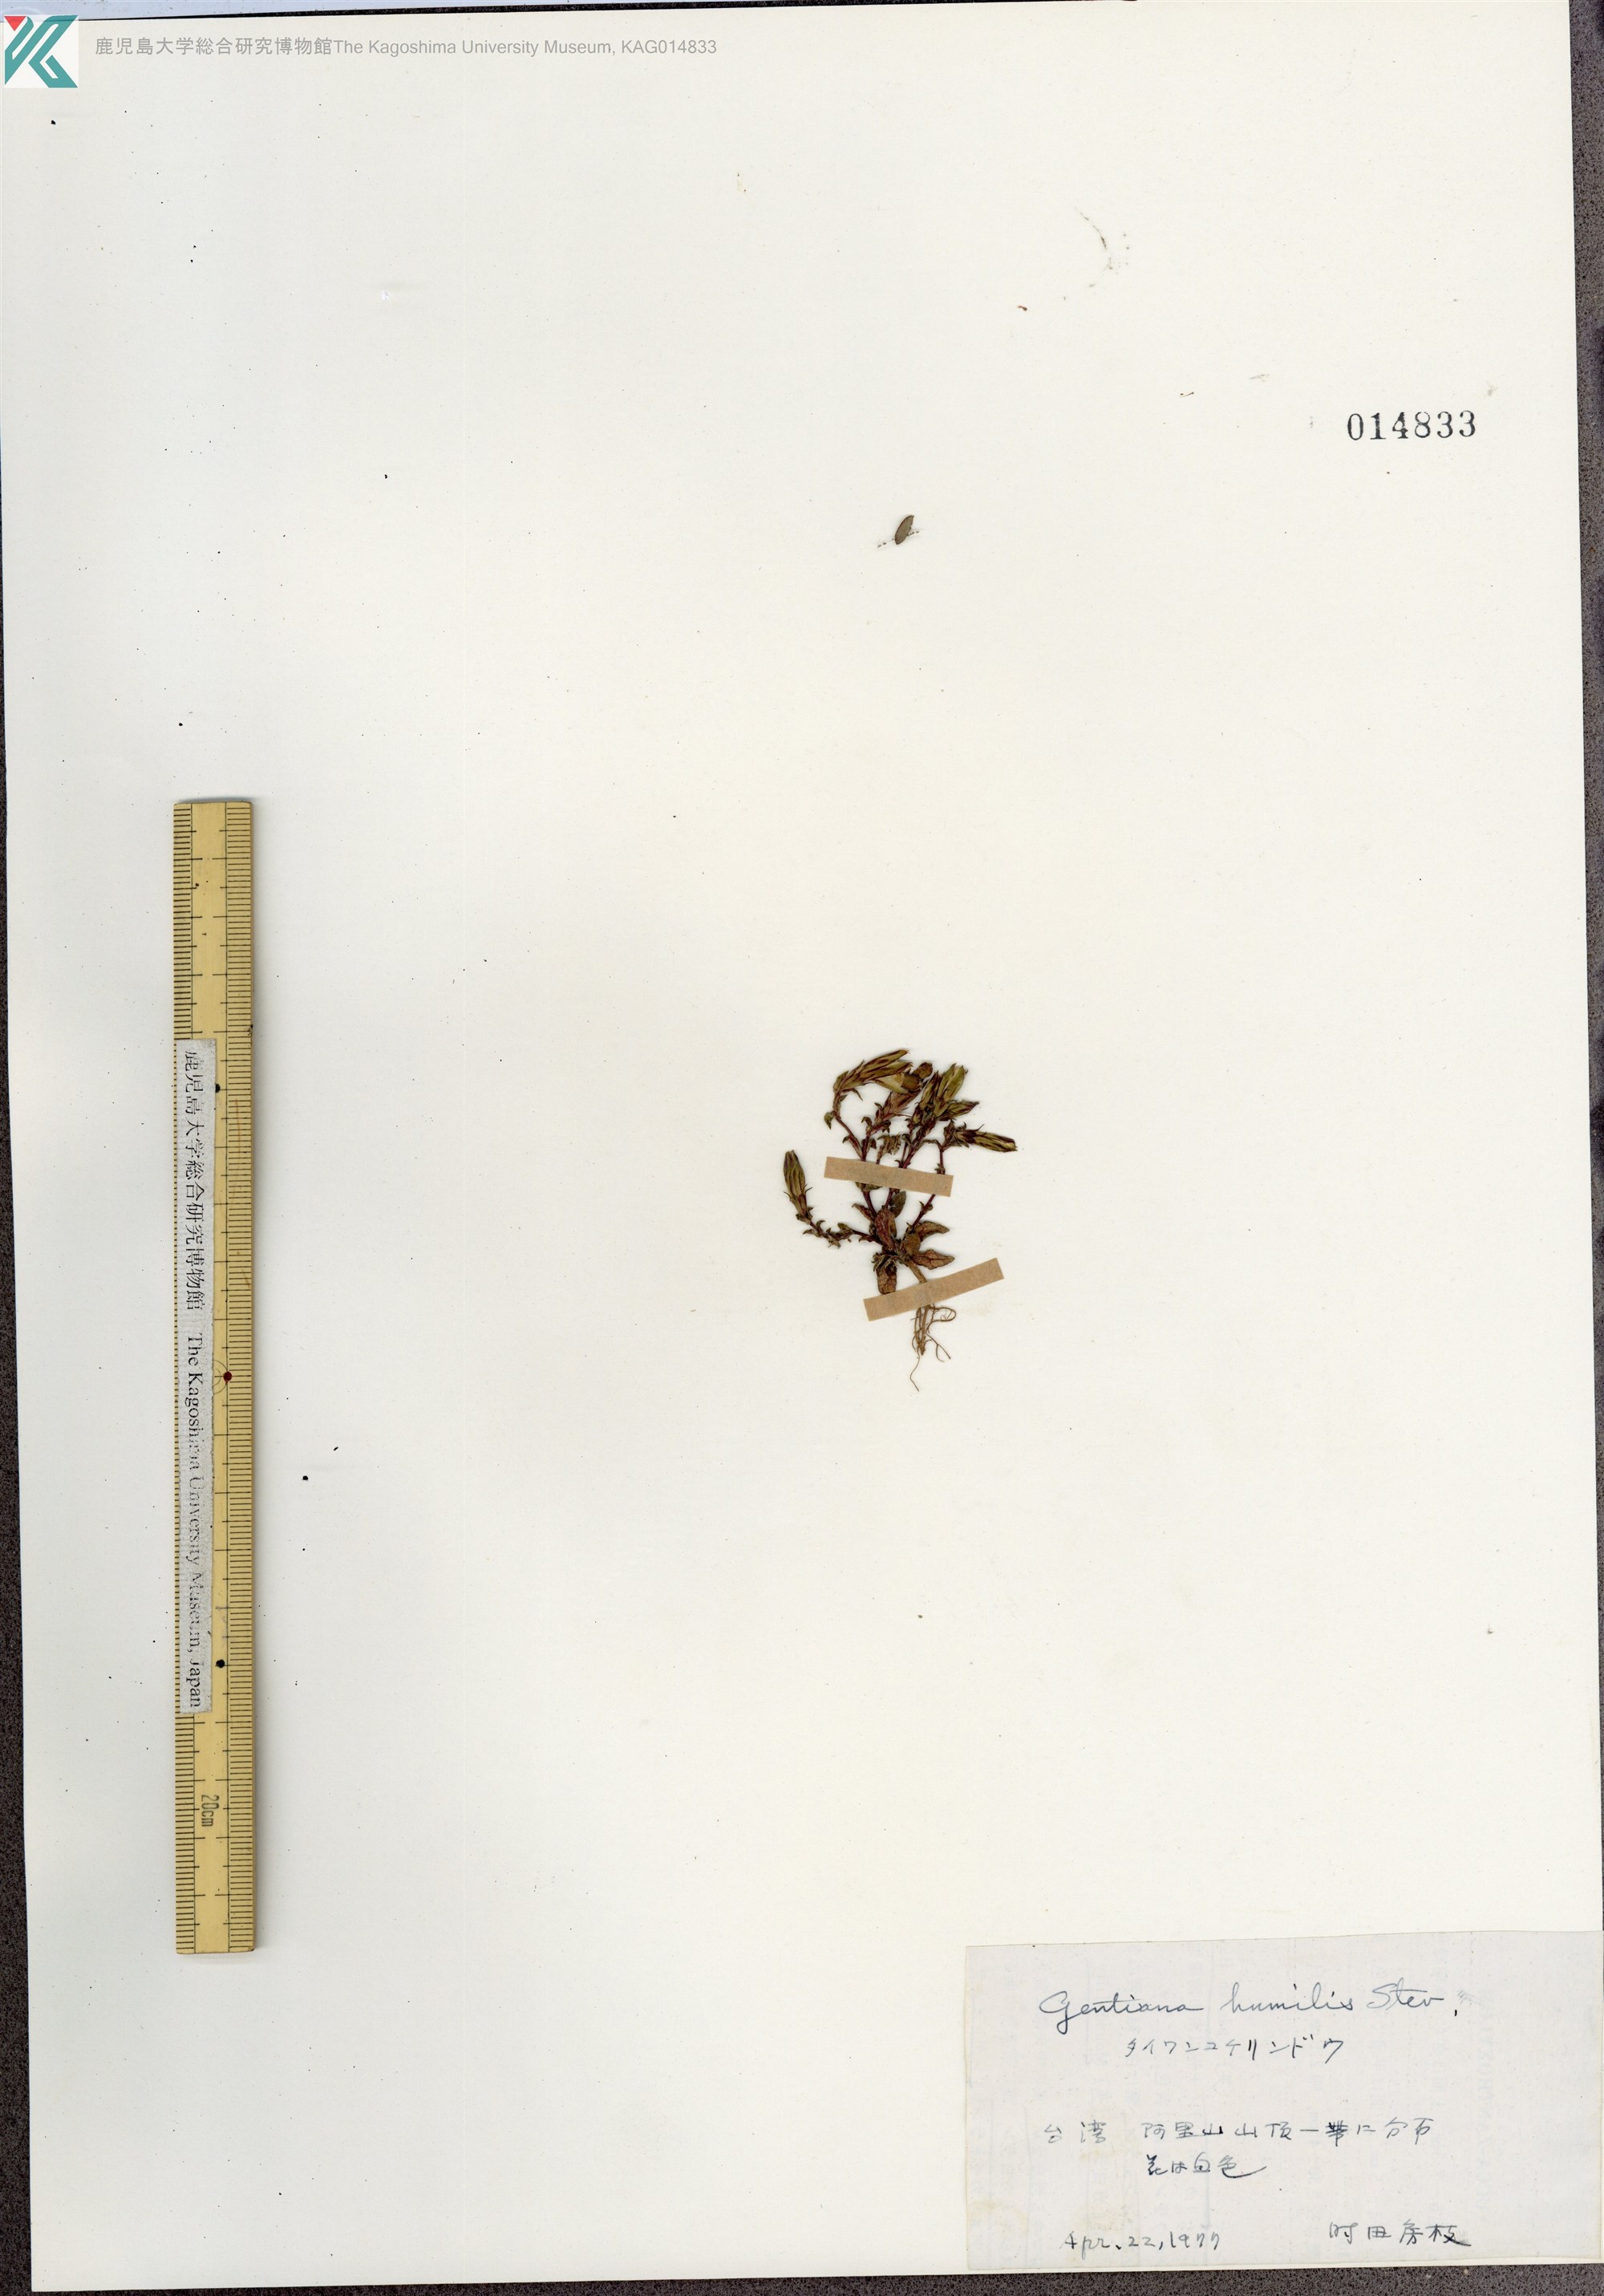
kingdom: Plantae
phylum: Tracheophyta
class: Magnoliopsida
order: Gentianales
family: Gentianaceae
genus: Gentiana
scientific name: Gentiana aquatica
